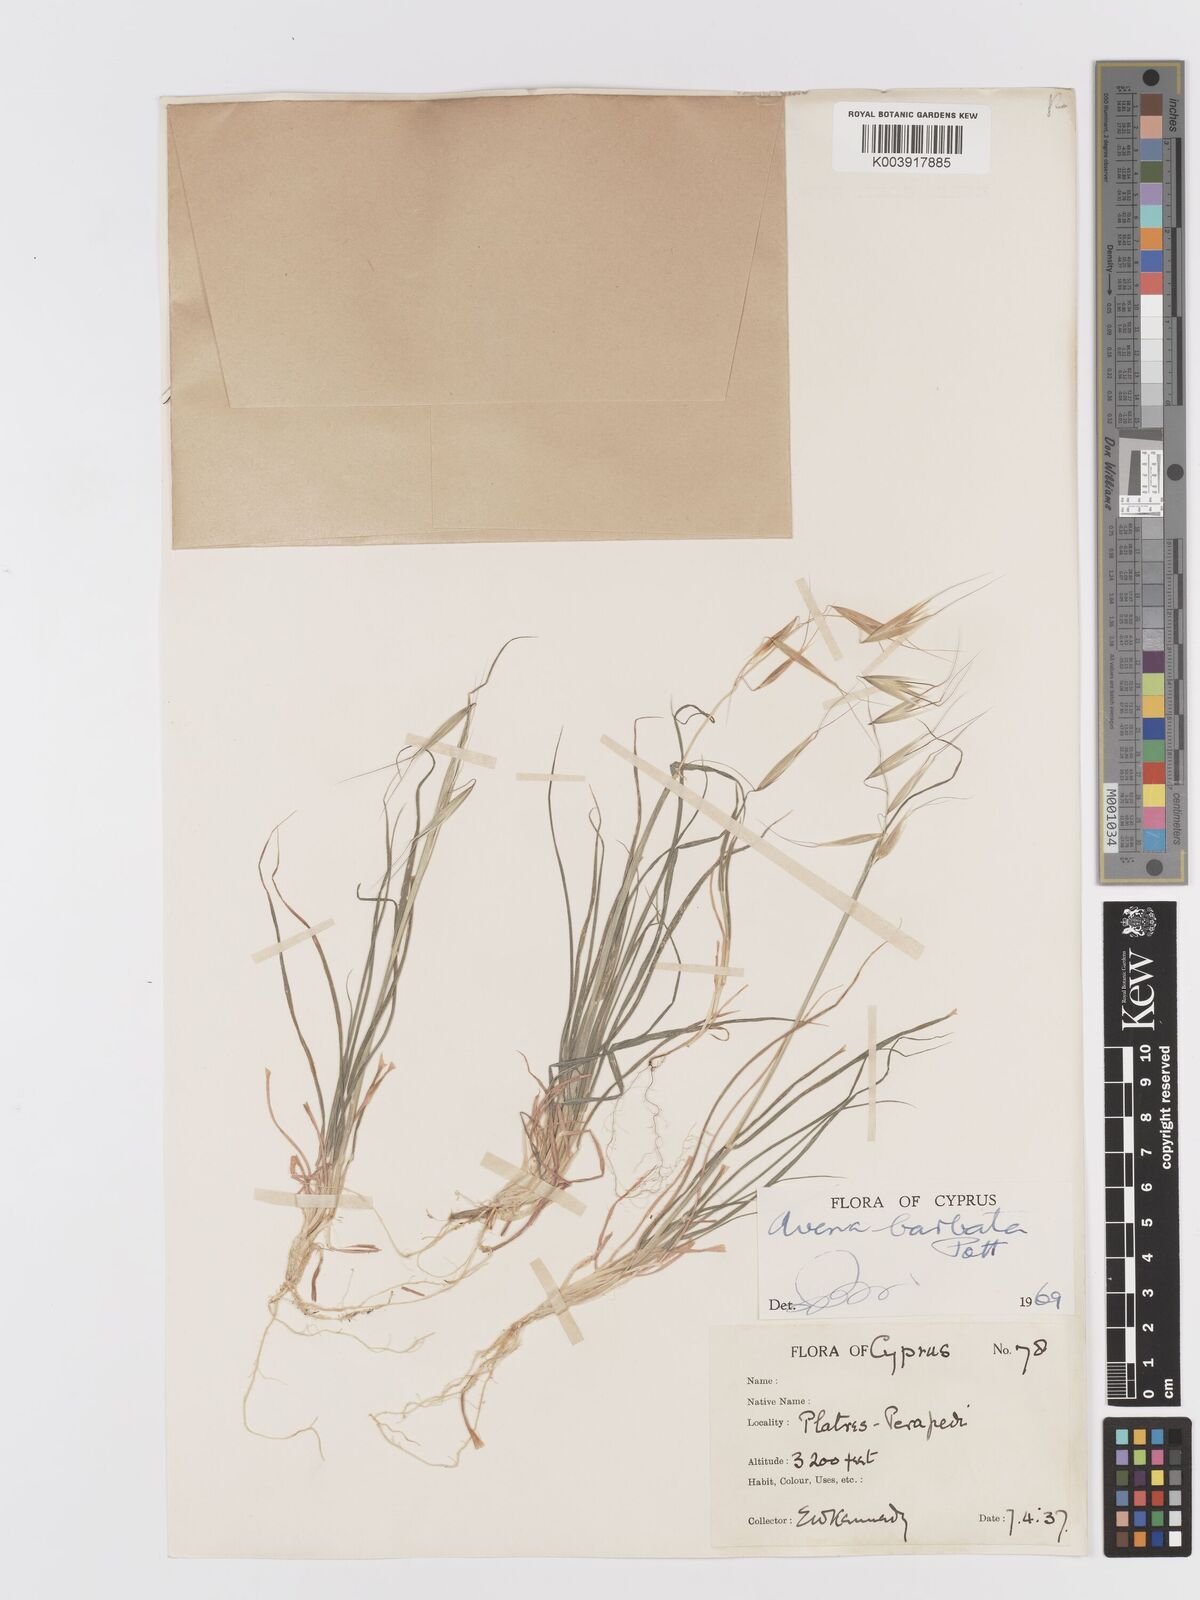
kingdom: Plantae
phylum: Tracheophyta
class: Liliopsida
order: Poales
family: Poaceae
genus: Avena
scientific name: Avena
